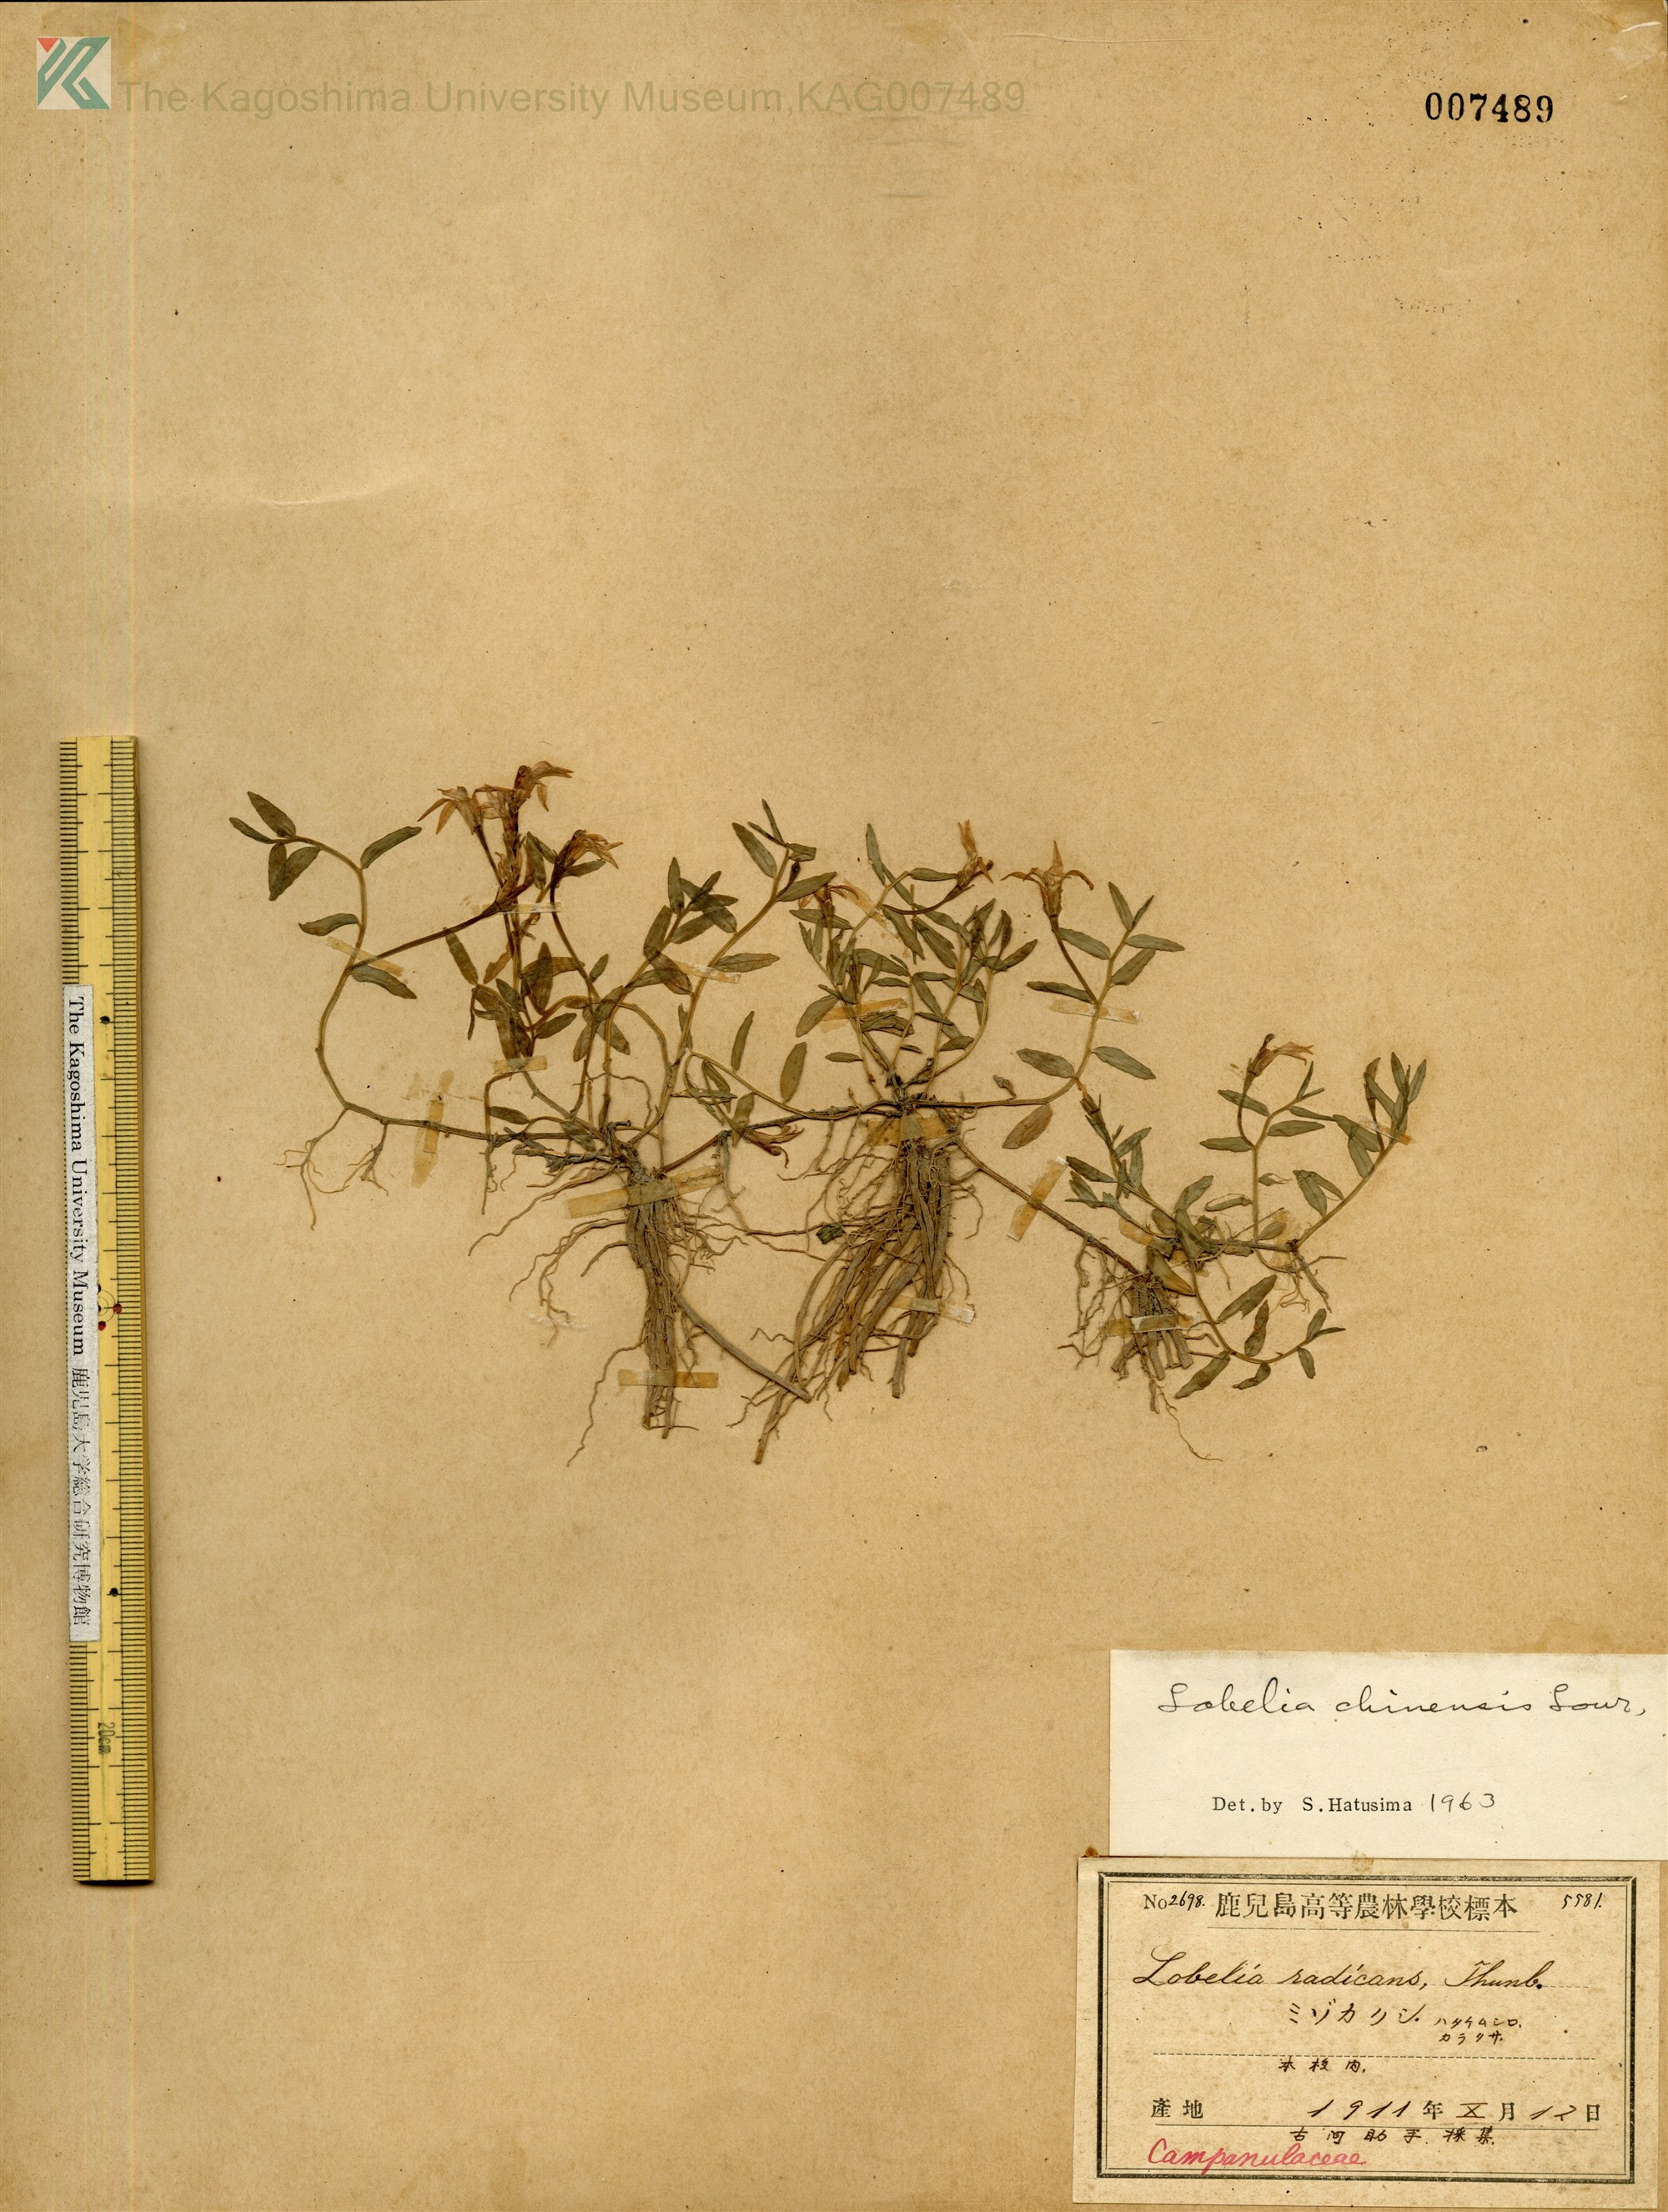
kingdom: Plantae
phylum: Tracheophyta
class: Magnoliopsida
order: Asterales
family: Campanulaceae
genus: Lobelia
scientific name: Lobelia chinensis
